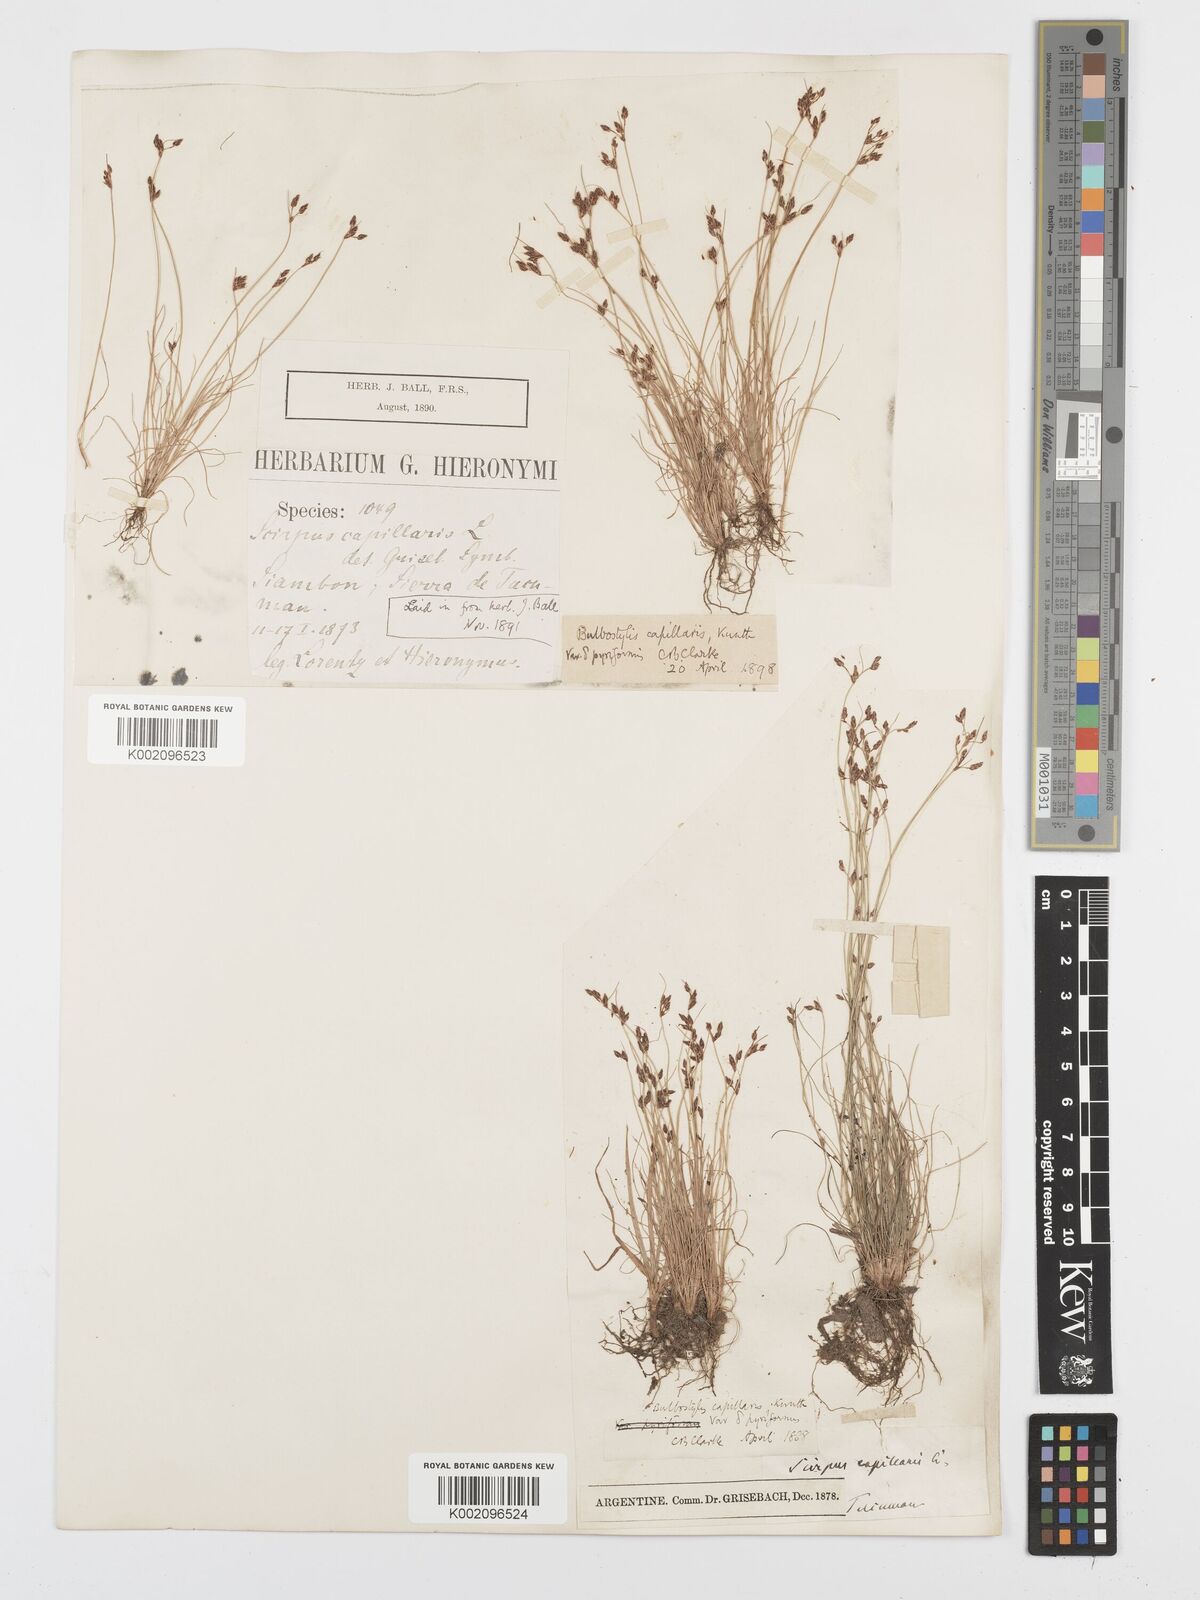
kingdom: Plantae
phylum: Tracheophyta
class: Liliopsida
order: Poales
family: Cyperaceae
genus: Bulbostylis
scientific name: Bulbostylis capillaris
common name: Densetuft hairsedge
